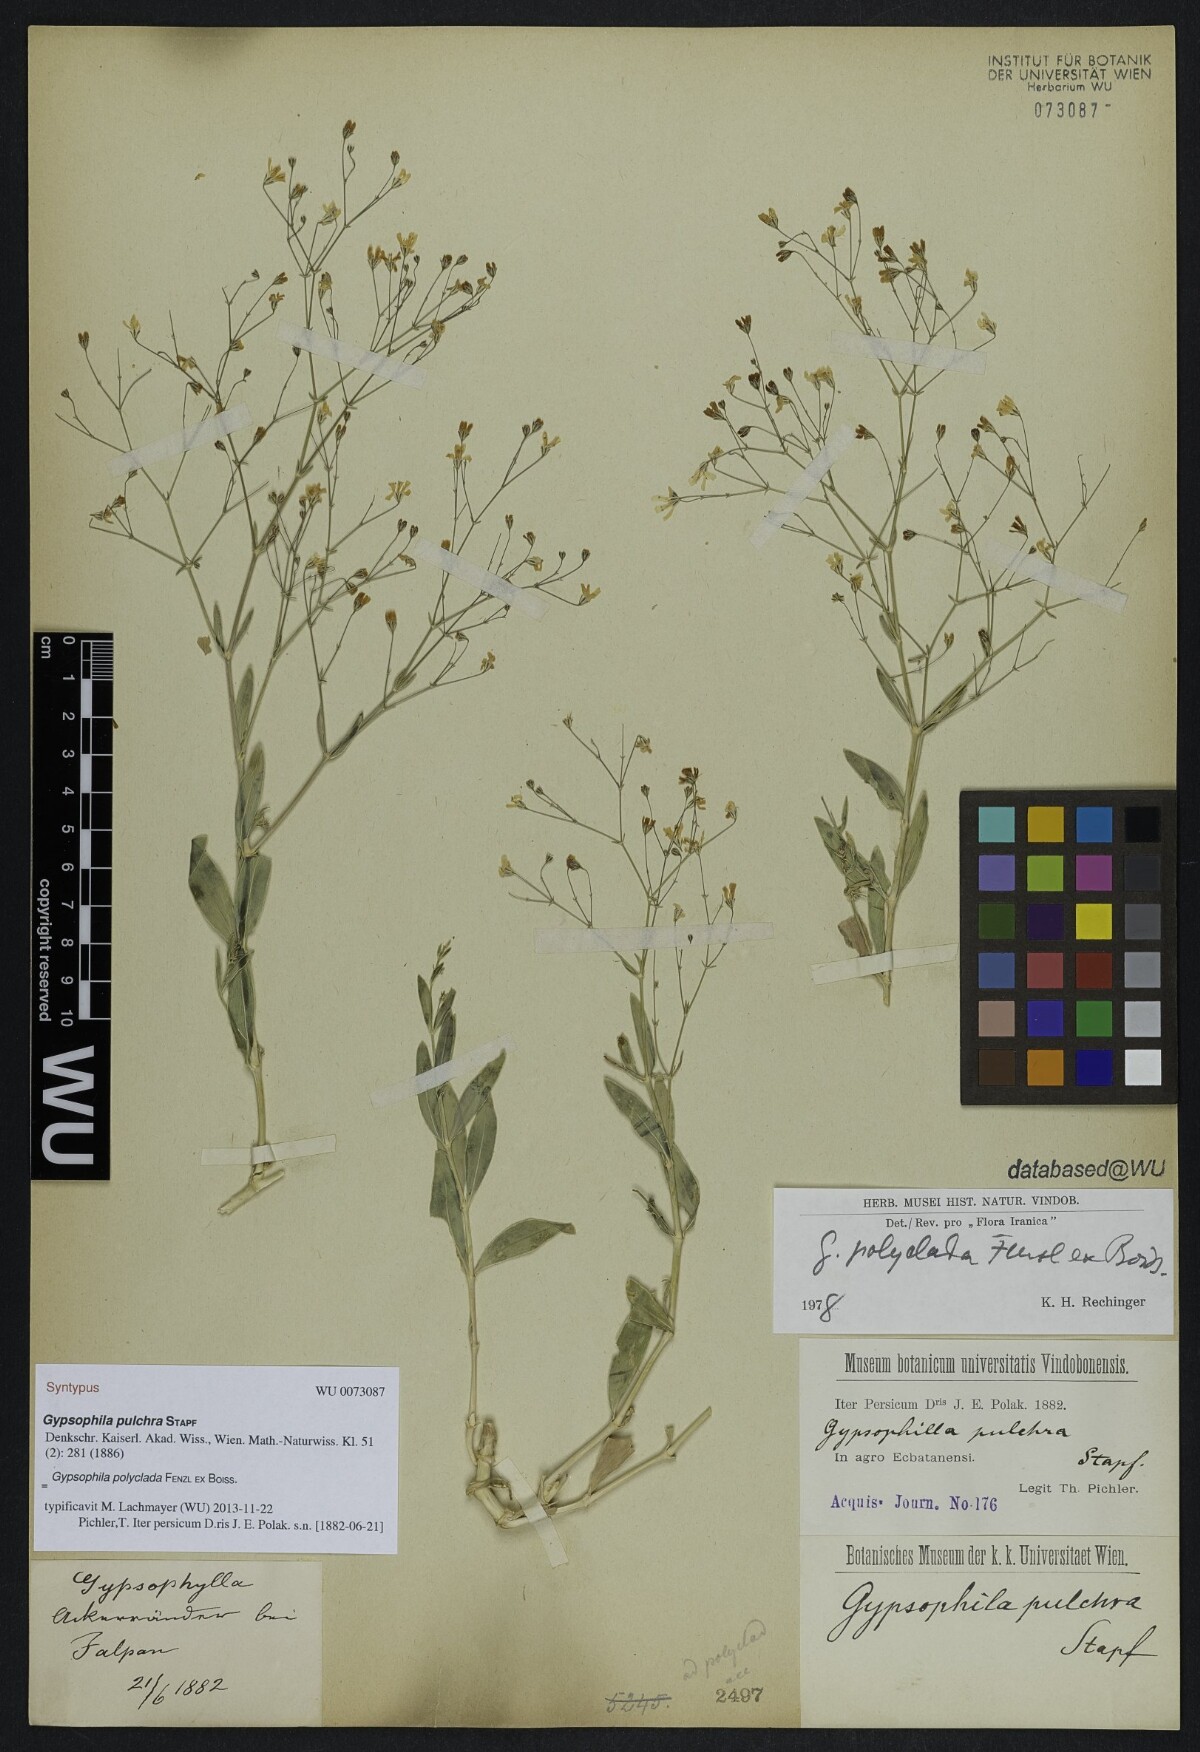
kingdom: Plantae
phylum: Tracheophyta
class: Magnoliopsida
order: Caryophyllales
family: Caryophyllaceae
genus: Gypsophila
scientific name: Gypsophila polyclada
